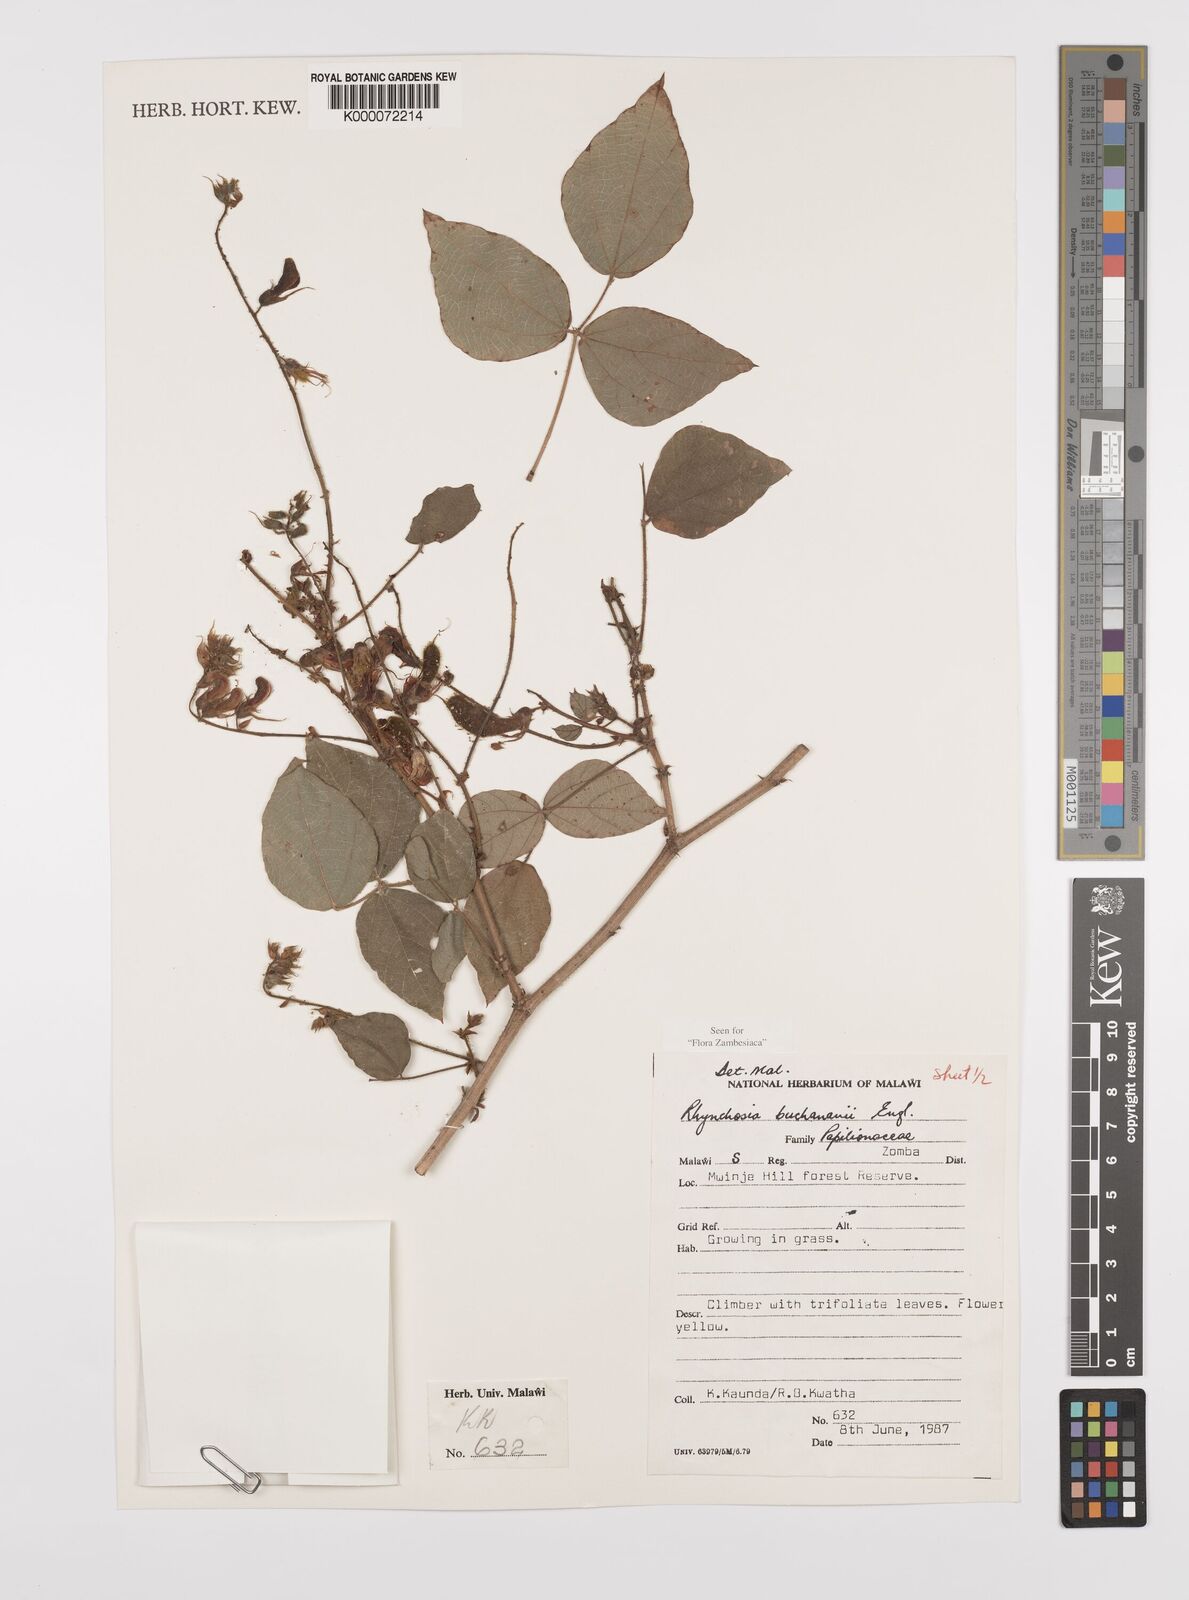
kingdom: Plantae
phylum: Tracheophyta
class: Magnoliopsida
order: Fabales
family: Fabaceae
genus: Rhynchosia
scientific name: Rhynchosia buchananii
